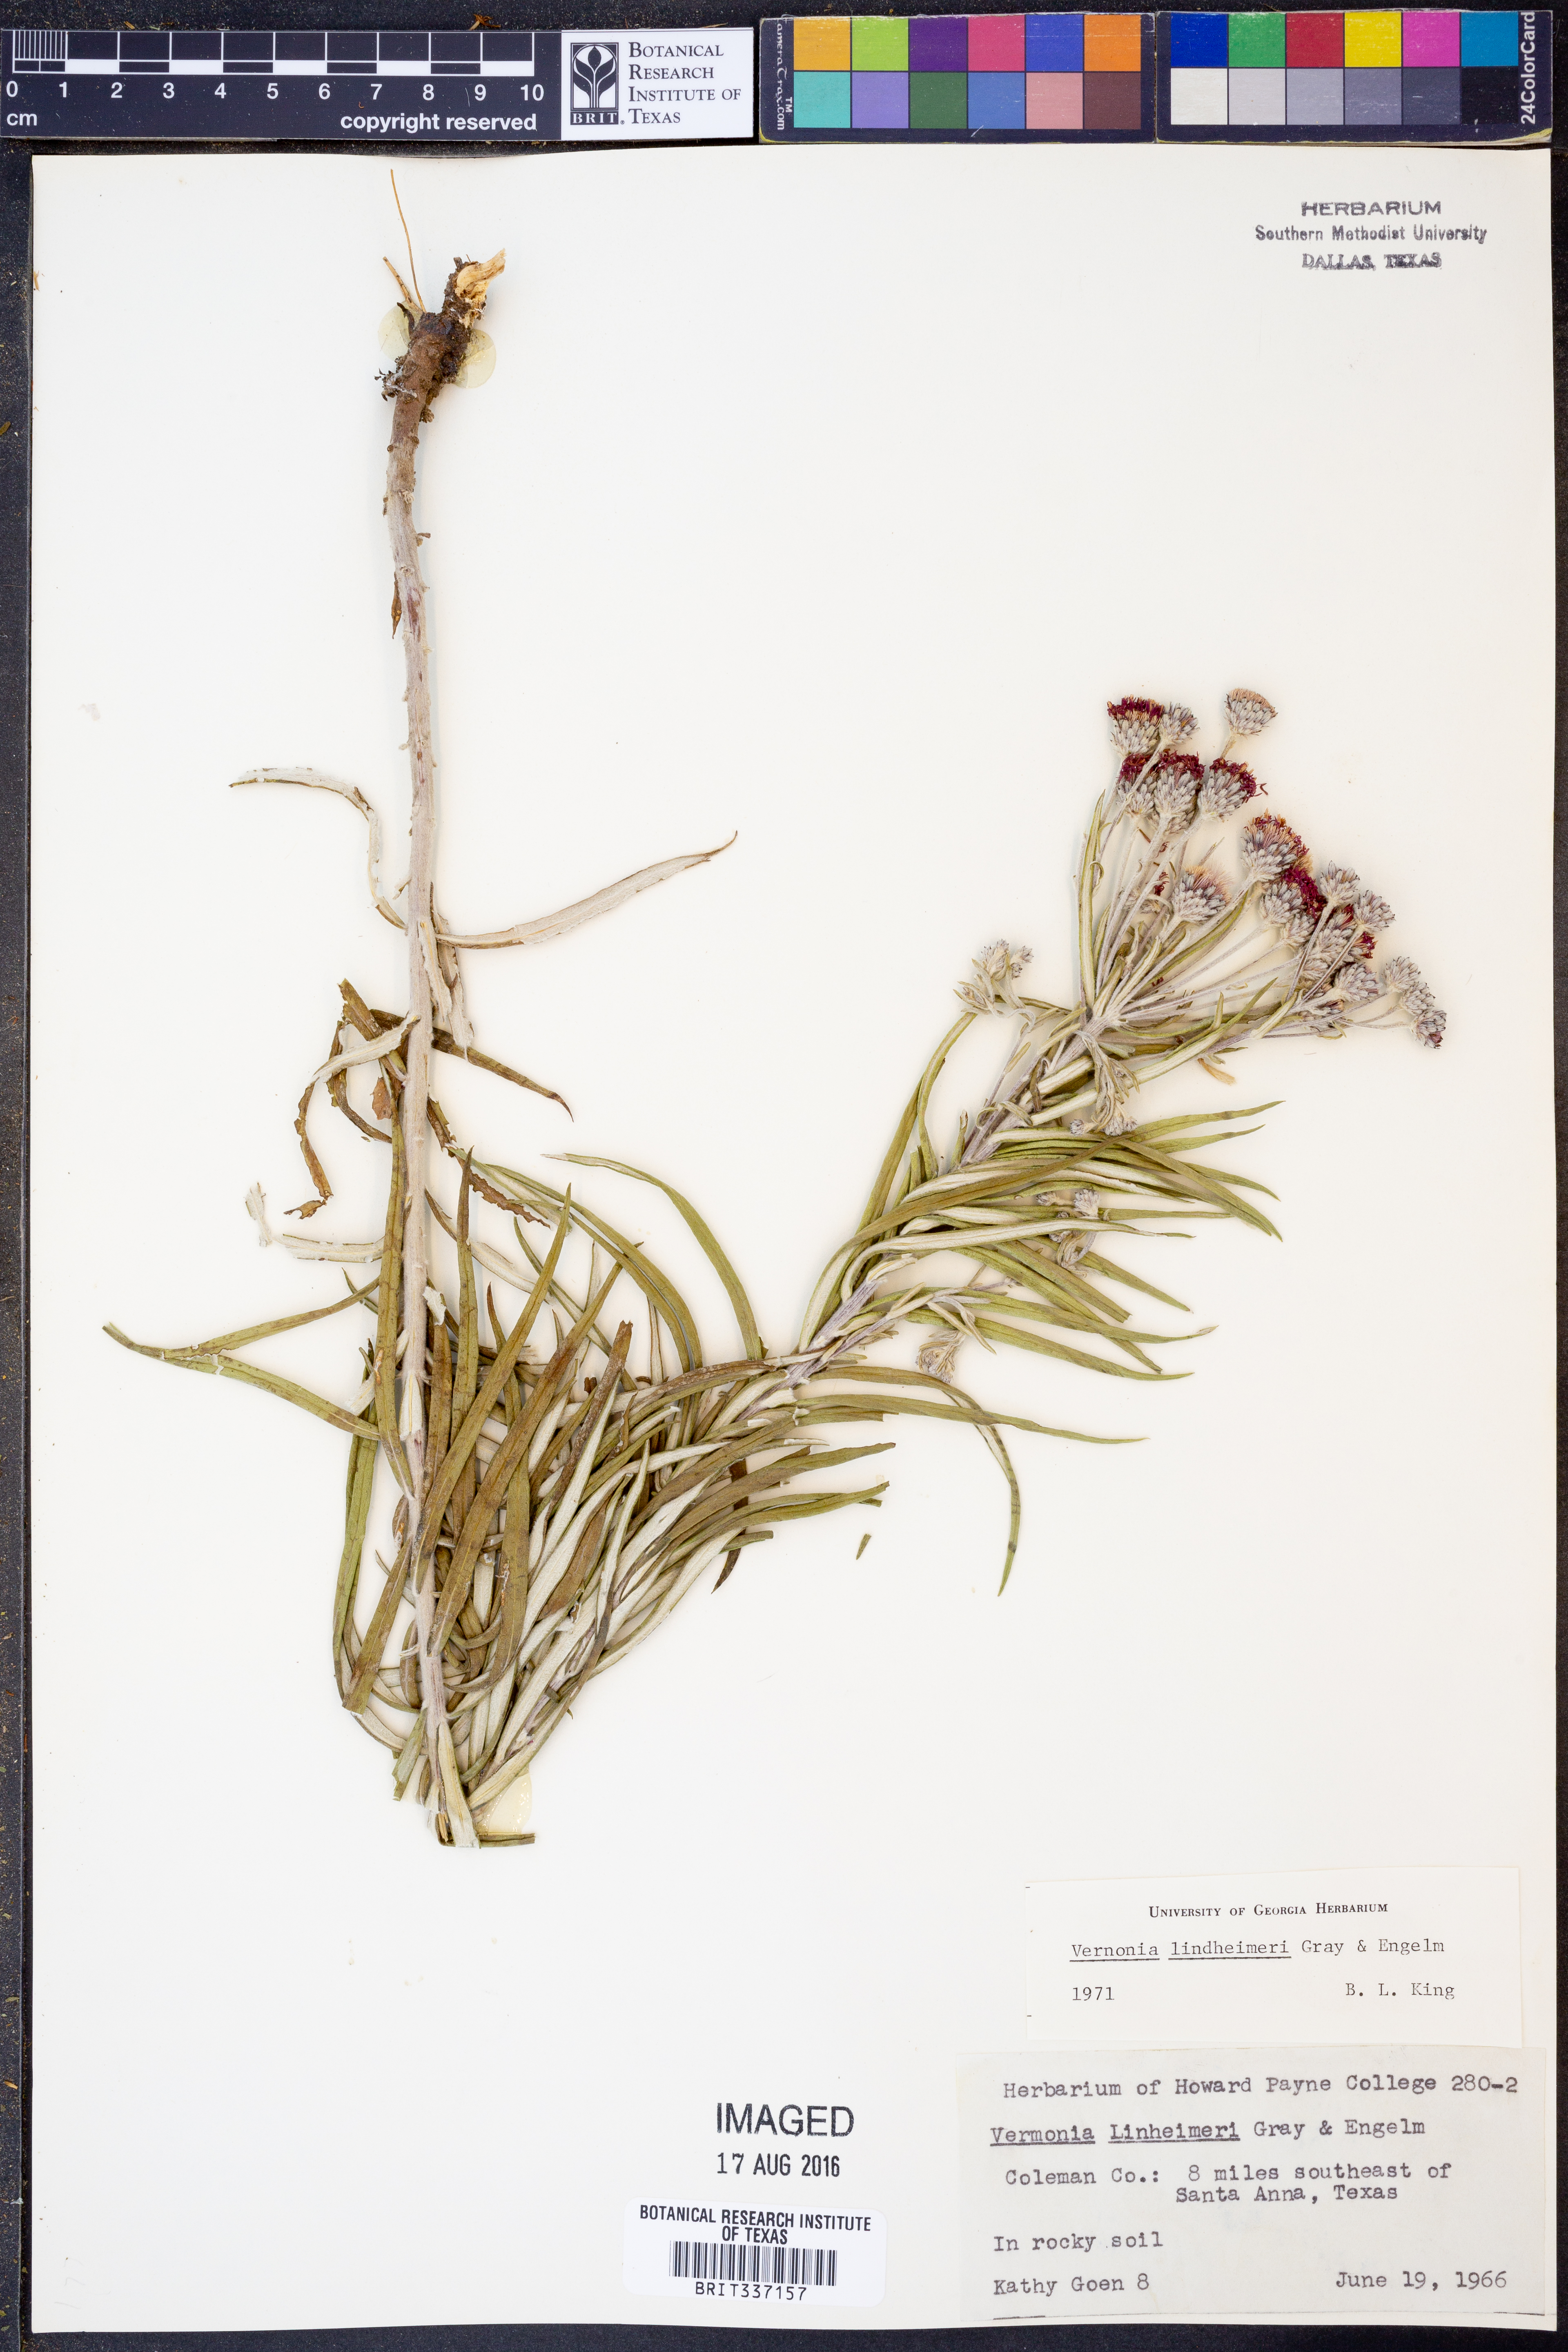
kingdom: Plantae
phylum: Tracheophyta
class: Magnoliopsida
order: Asterales
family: Asteraceae
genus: Vernonia
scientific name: Vernonia lindheimeri
